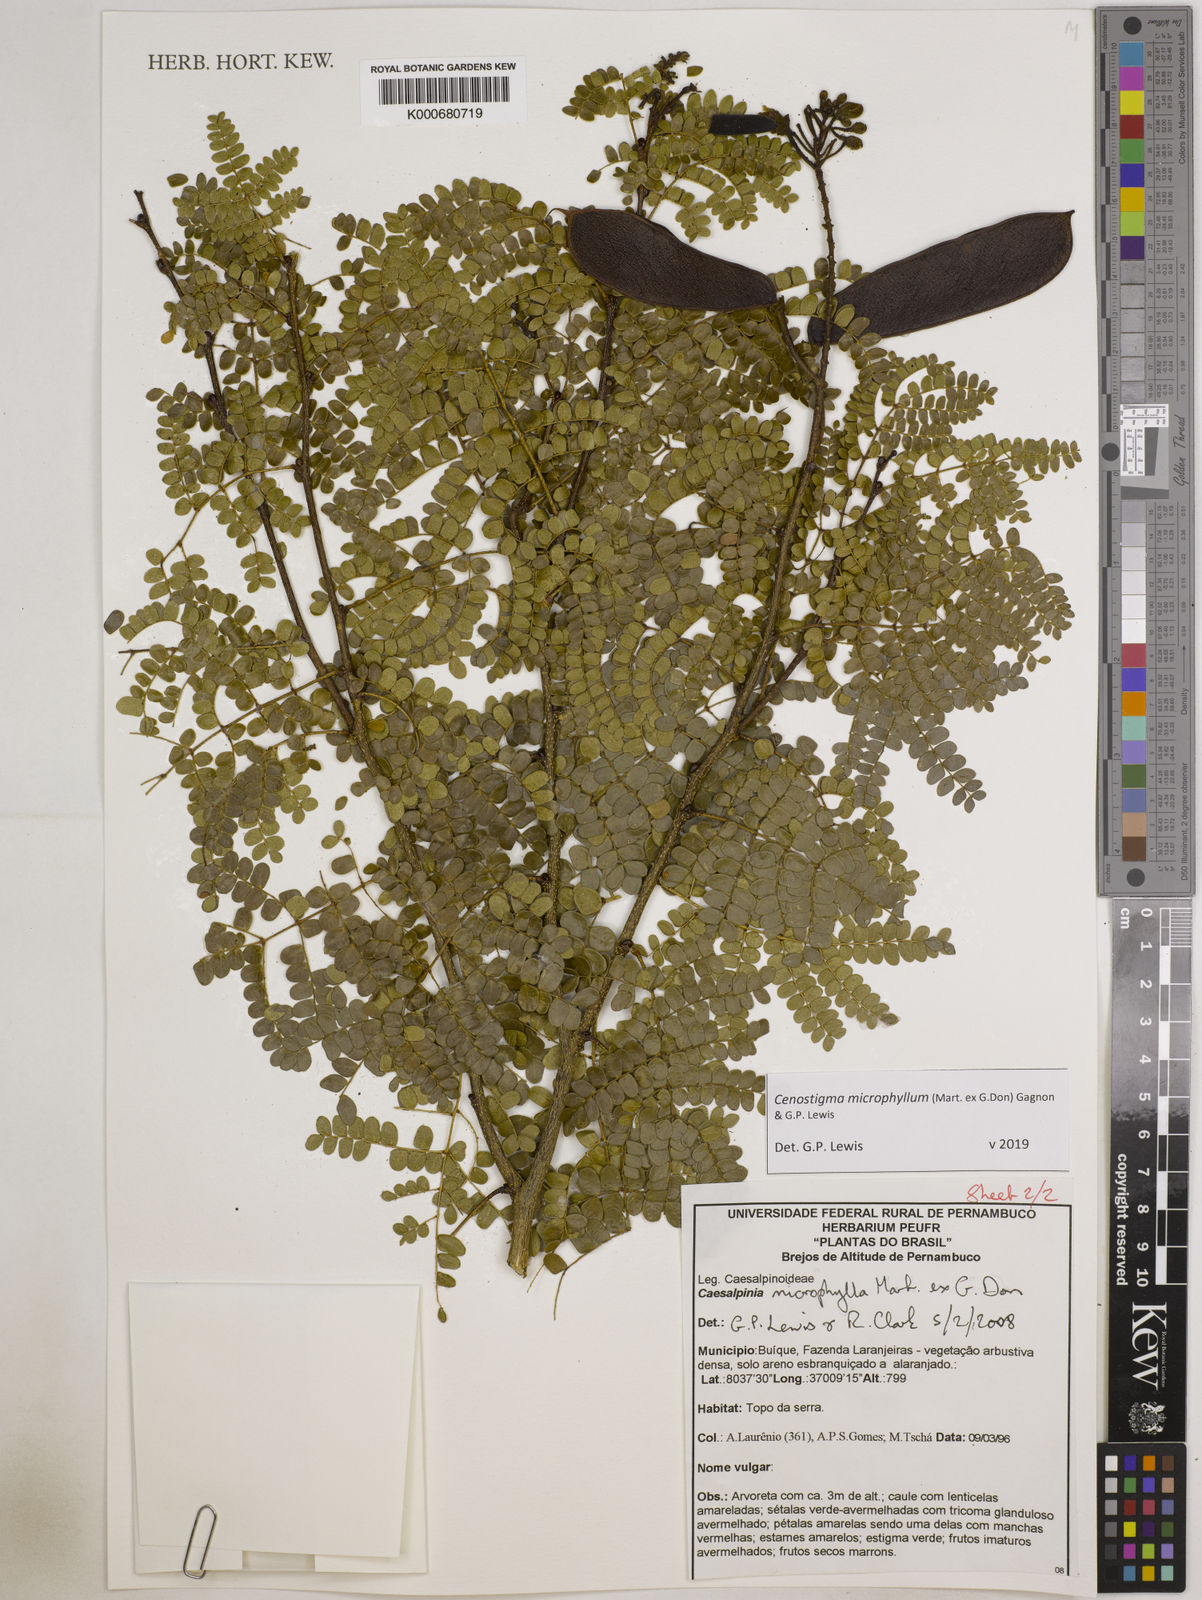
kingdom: Plantae
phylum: Tracheophyta
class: Magnoliopsida
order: Fabales
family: Fabaceae
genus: Cenostigma
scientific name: Cenostigma microphyllum
